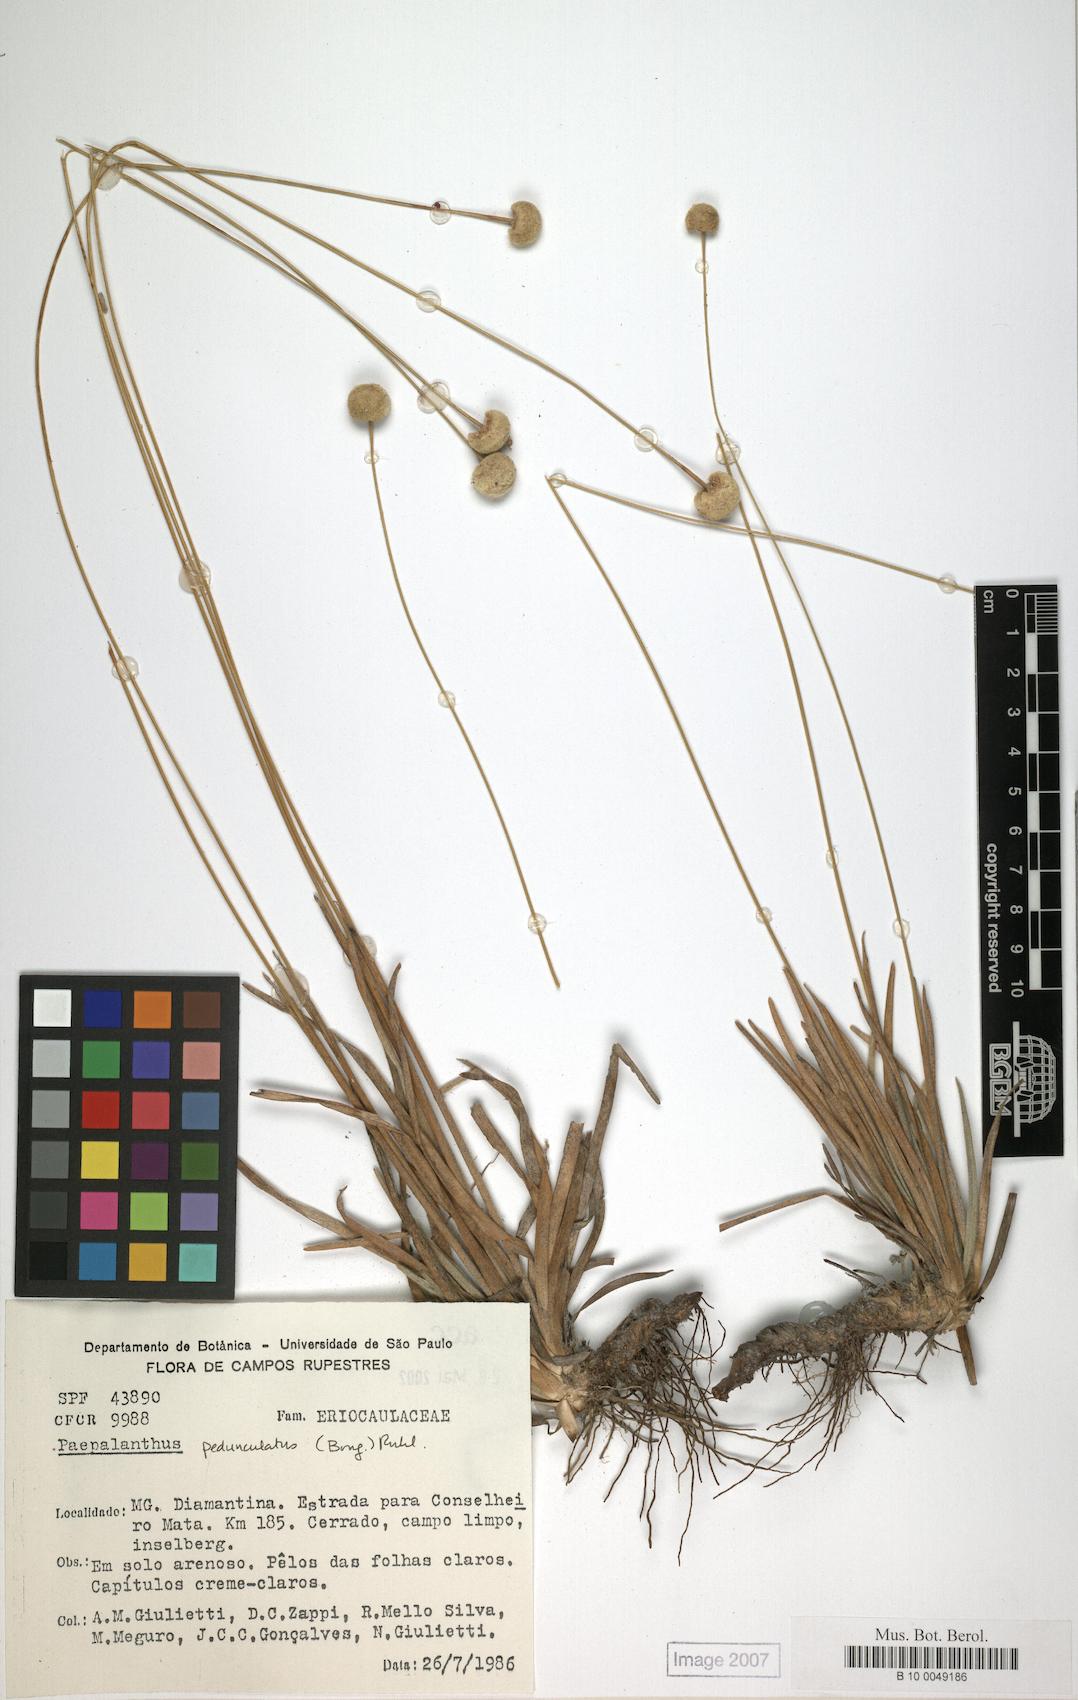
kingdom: Plantae
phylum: Tracheophyta
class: Liliopsida
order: Poales
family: Eriocaulaceae
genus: Paepalanthus
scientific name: Paepalanthus perpusillus
